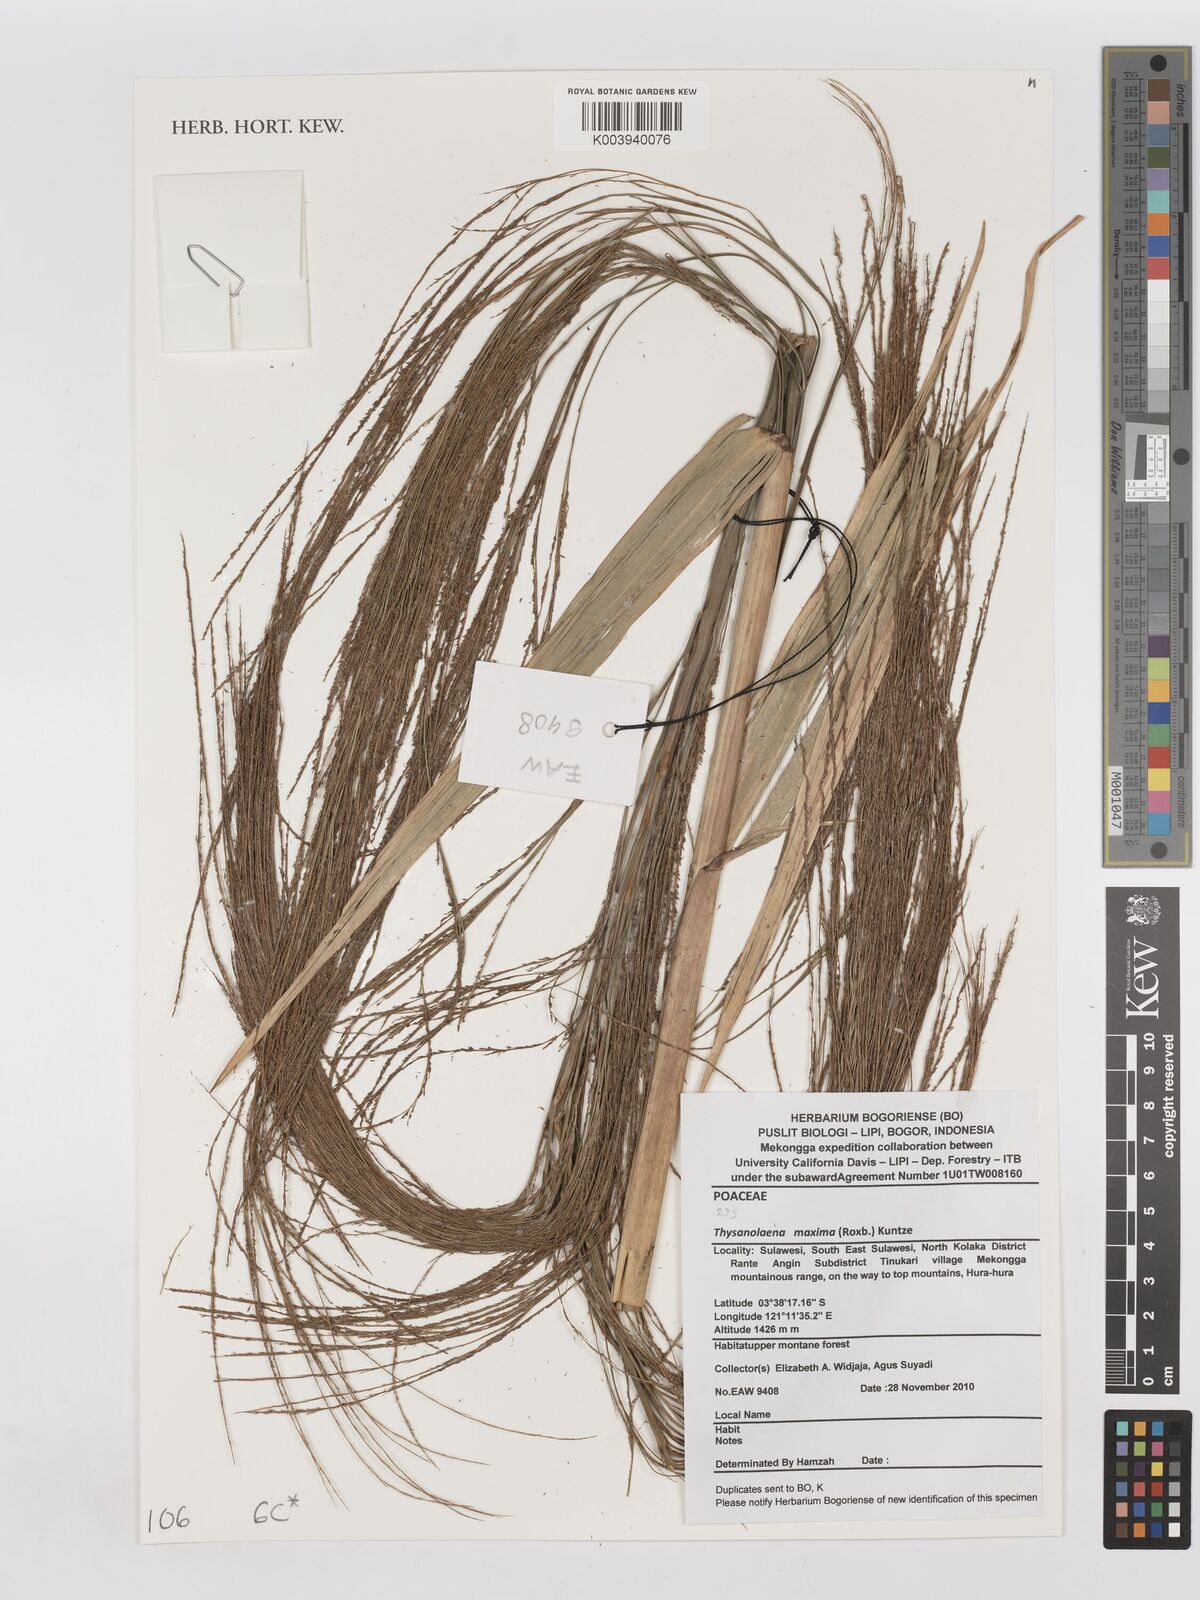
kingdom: Plantae
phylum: Tracheophyta
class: Liliopsida
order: Poales
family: Poaceae
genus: Thysanolaena
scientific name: Thysanolaena latifolia
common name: Tiger grass
